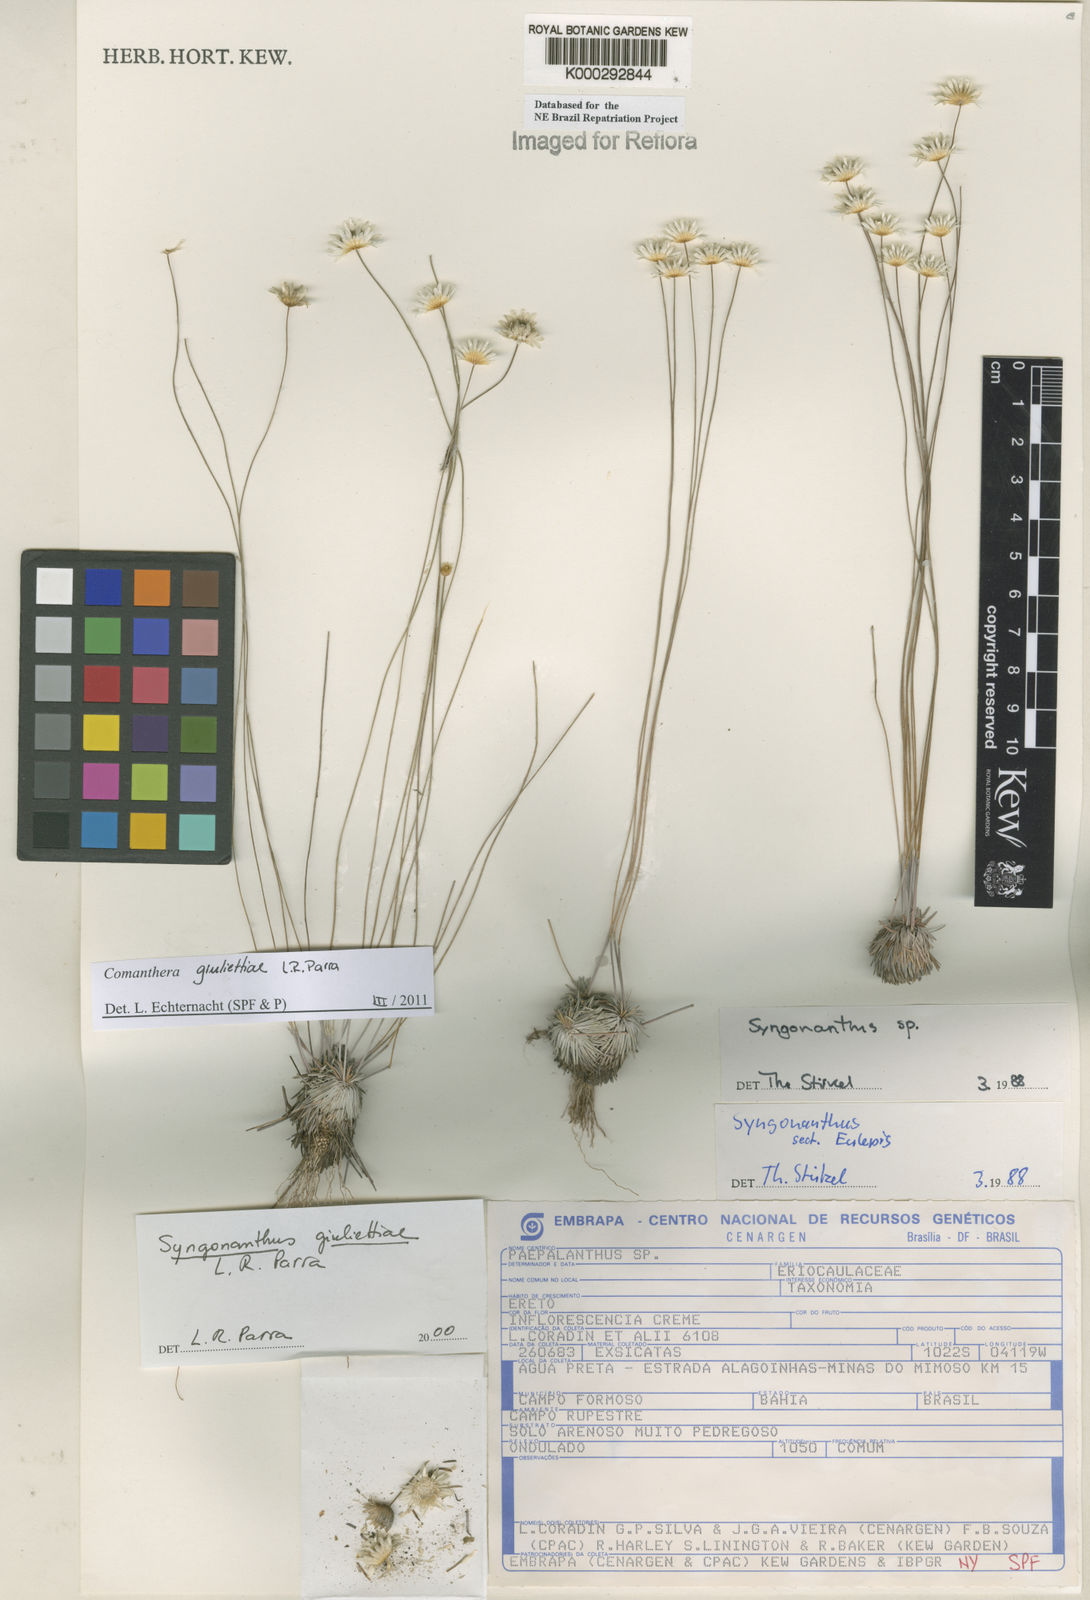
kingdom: Plantae
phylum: Tracheophyta
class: Liliopsida
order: Poales
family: Eriocaulaceae
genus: Syngonanthus
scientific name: Syngonanthus
